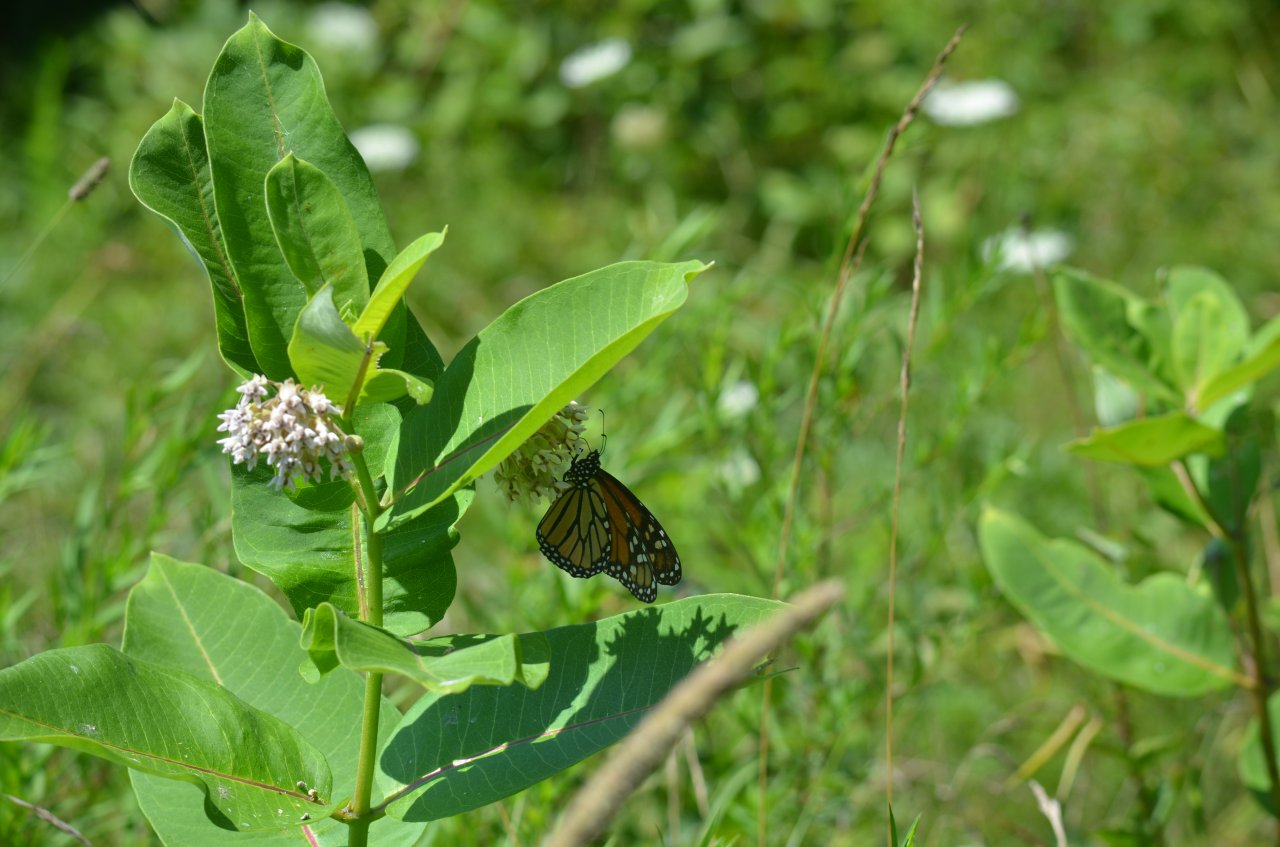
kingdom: Animalia
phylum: Arthropoda
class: Insecta
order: Lepidoptera
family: Nymphalidae
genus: Danaus
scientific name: Danaus plexippus
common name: Monarch
